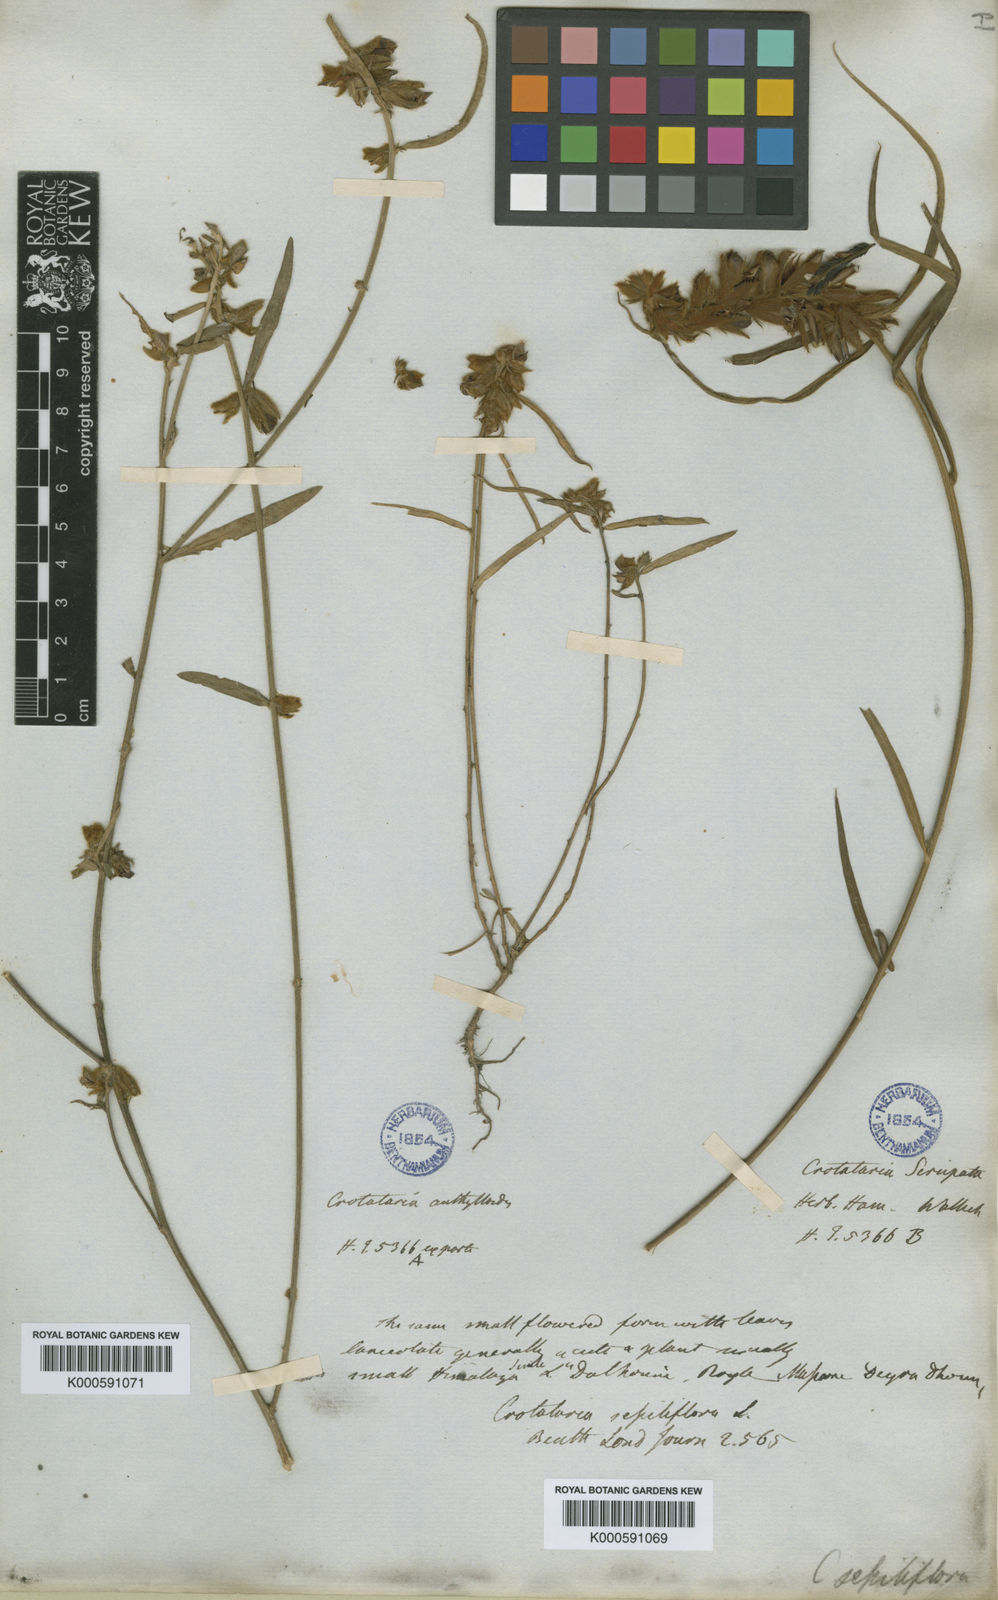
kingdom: Plantae
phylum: Tracheophyta
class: Magnoliopsida
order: Fabales
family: Fabaceae
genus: Crotalaria
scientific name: Crotalaria sessiliflora
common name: Rattlebox
